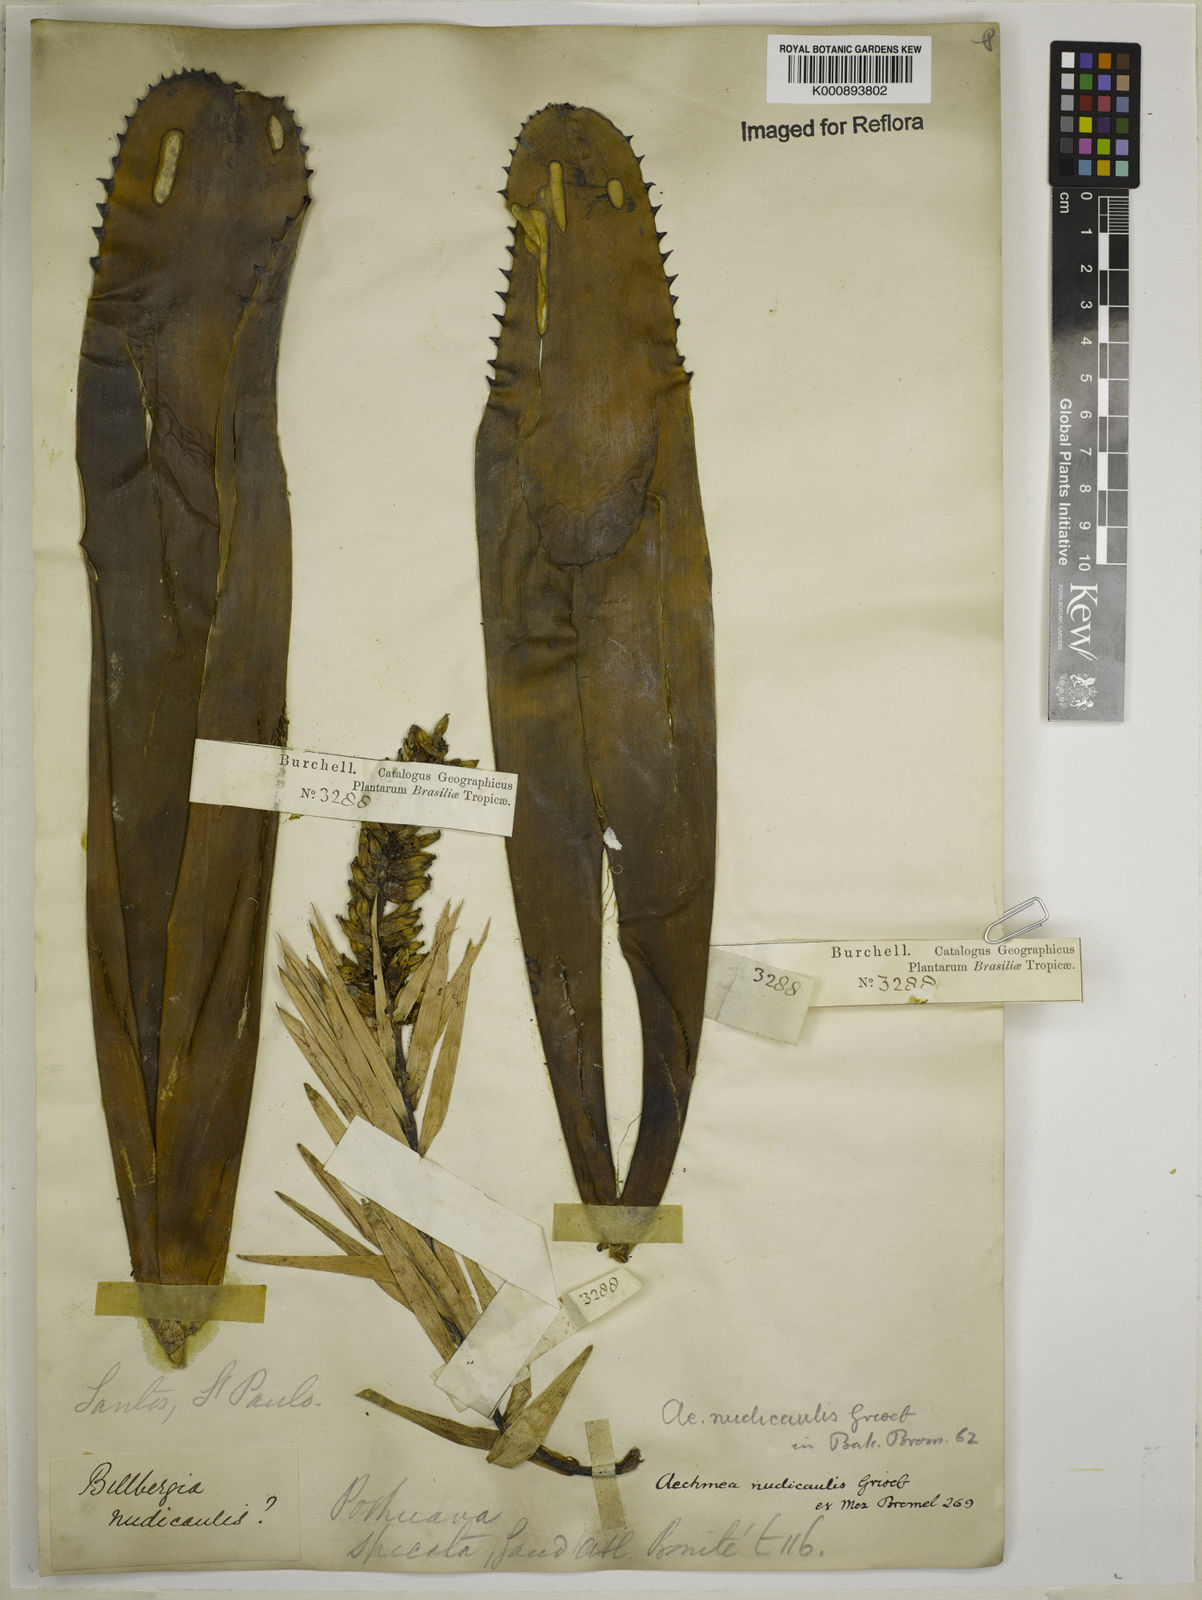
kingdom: Plantae
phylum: Tracheophyta
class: Liliopsida
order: Poales
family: Bromeliaceae
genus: Aechmea
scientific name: Aechmea nudicaulis
